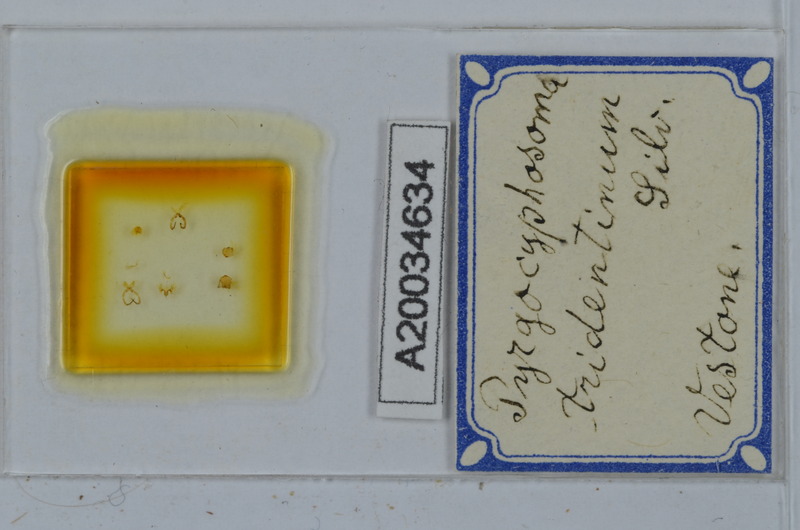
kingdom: Animalia
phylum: Arthropoda
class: Diplopoda
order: Chordeumatida
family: Craspedosomatidae
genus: Pyrgocyphosoma
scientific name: Pyrgocyphosoma tridentinum
